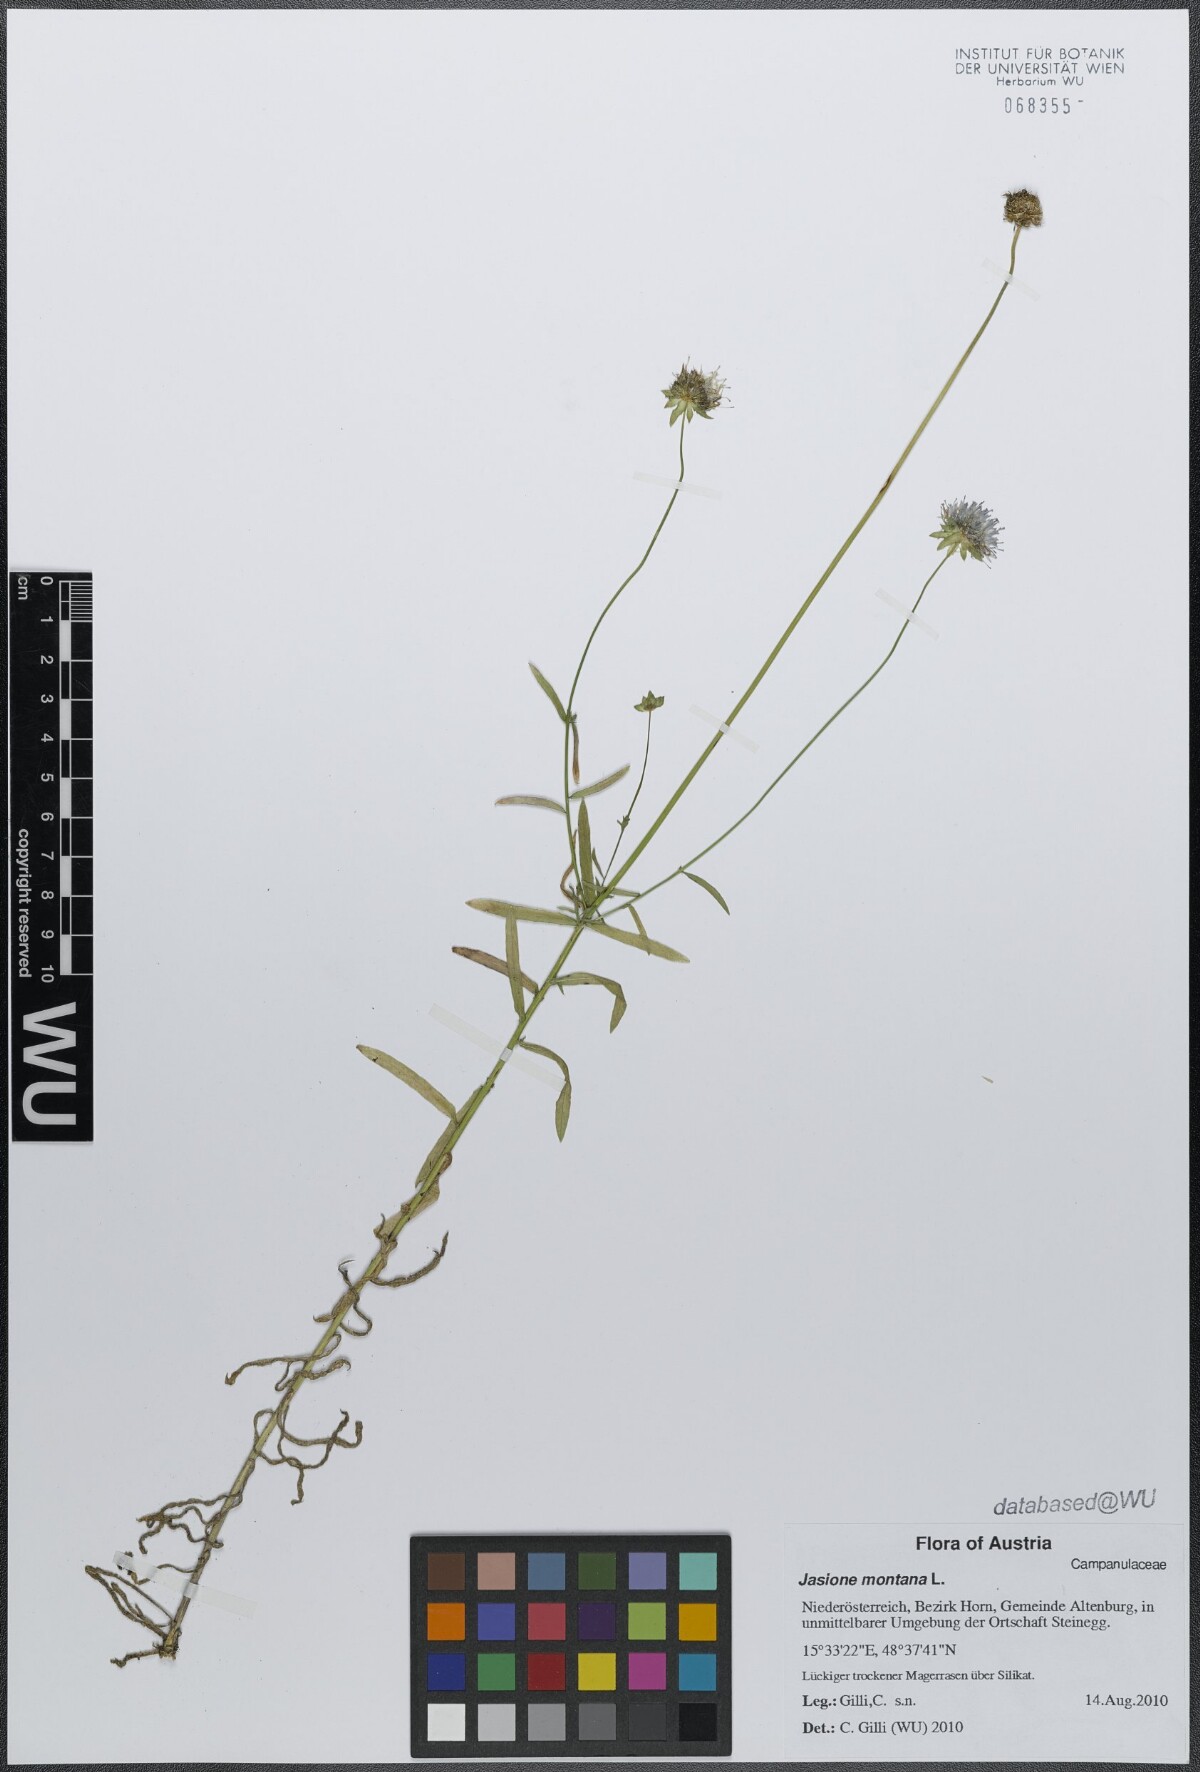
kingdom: Plantae
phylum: Tracheophyta
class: Magnoliopsida
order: Asterales
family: Campanulaceae
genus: Jasione
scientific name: Jasione montana
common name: Sheep's-bit
